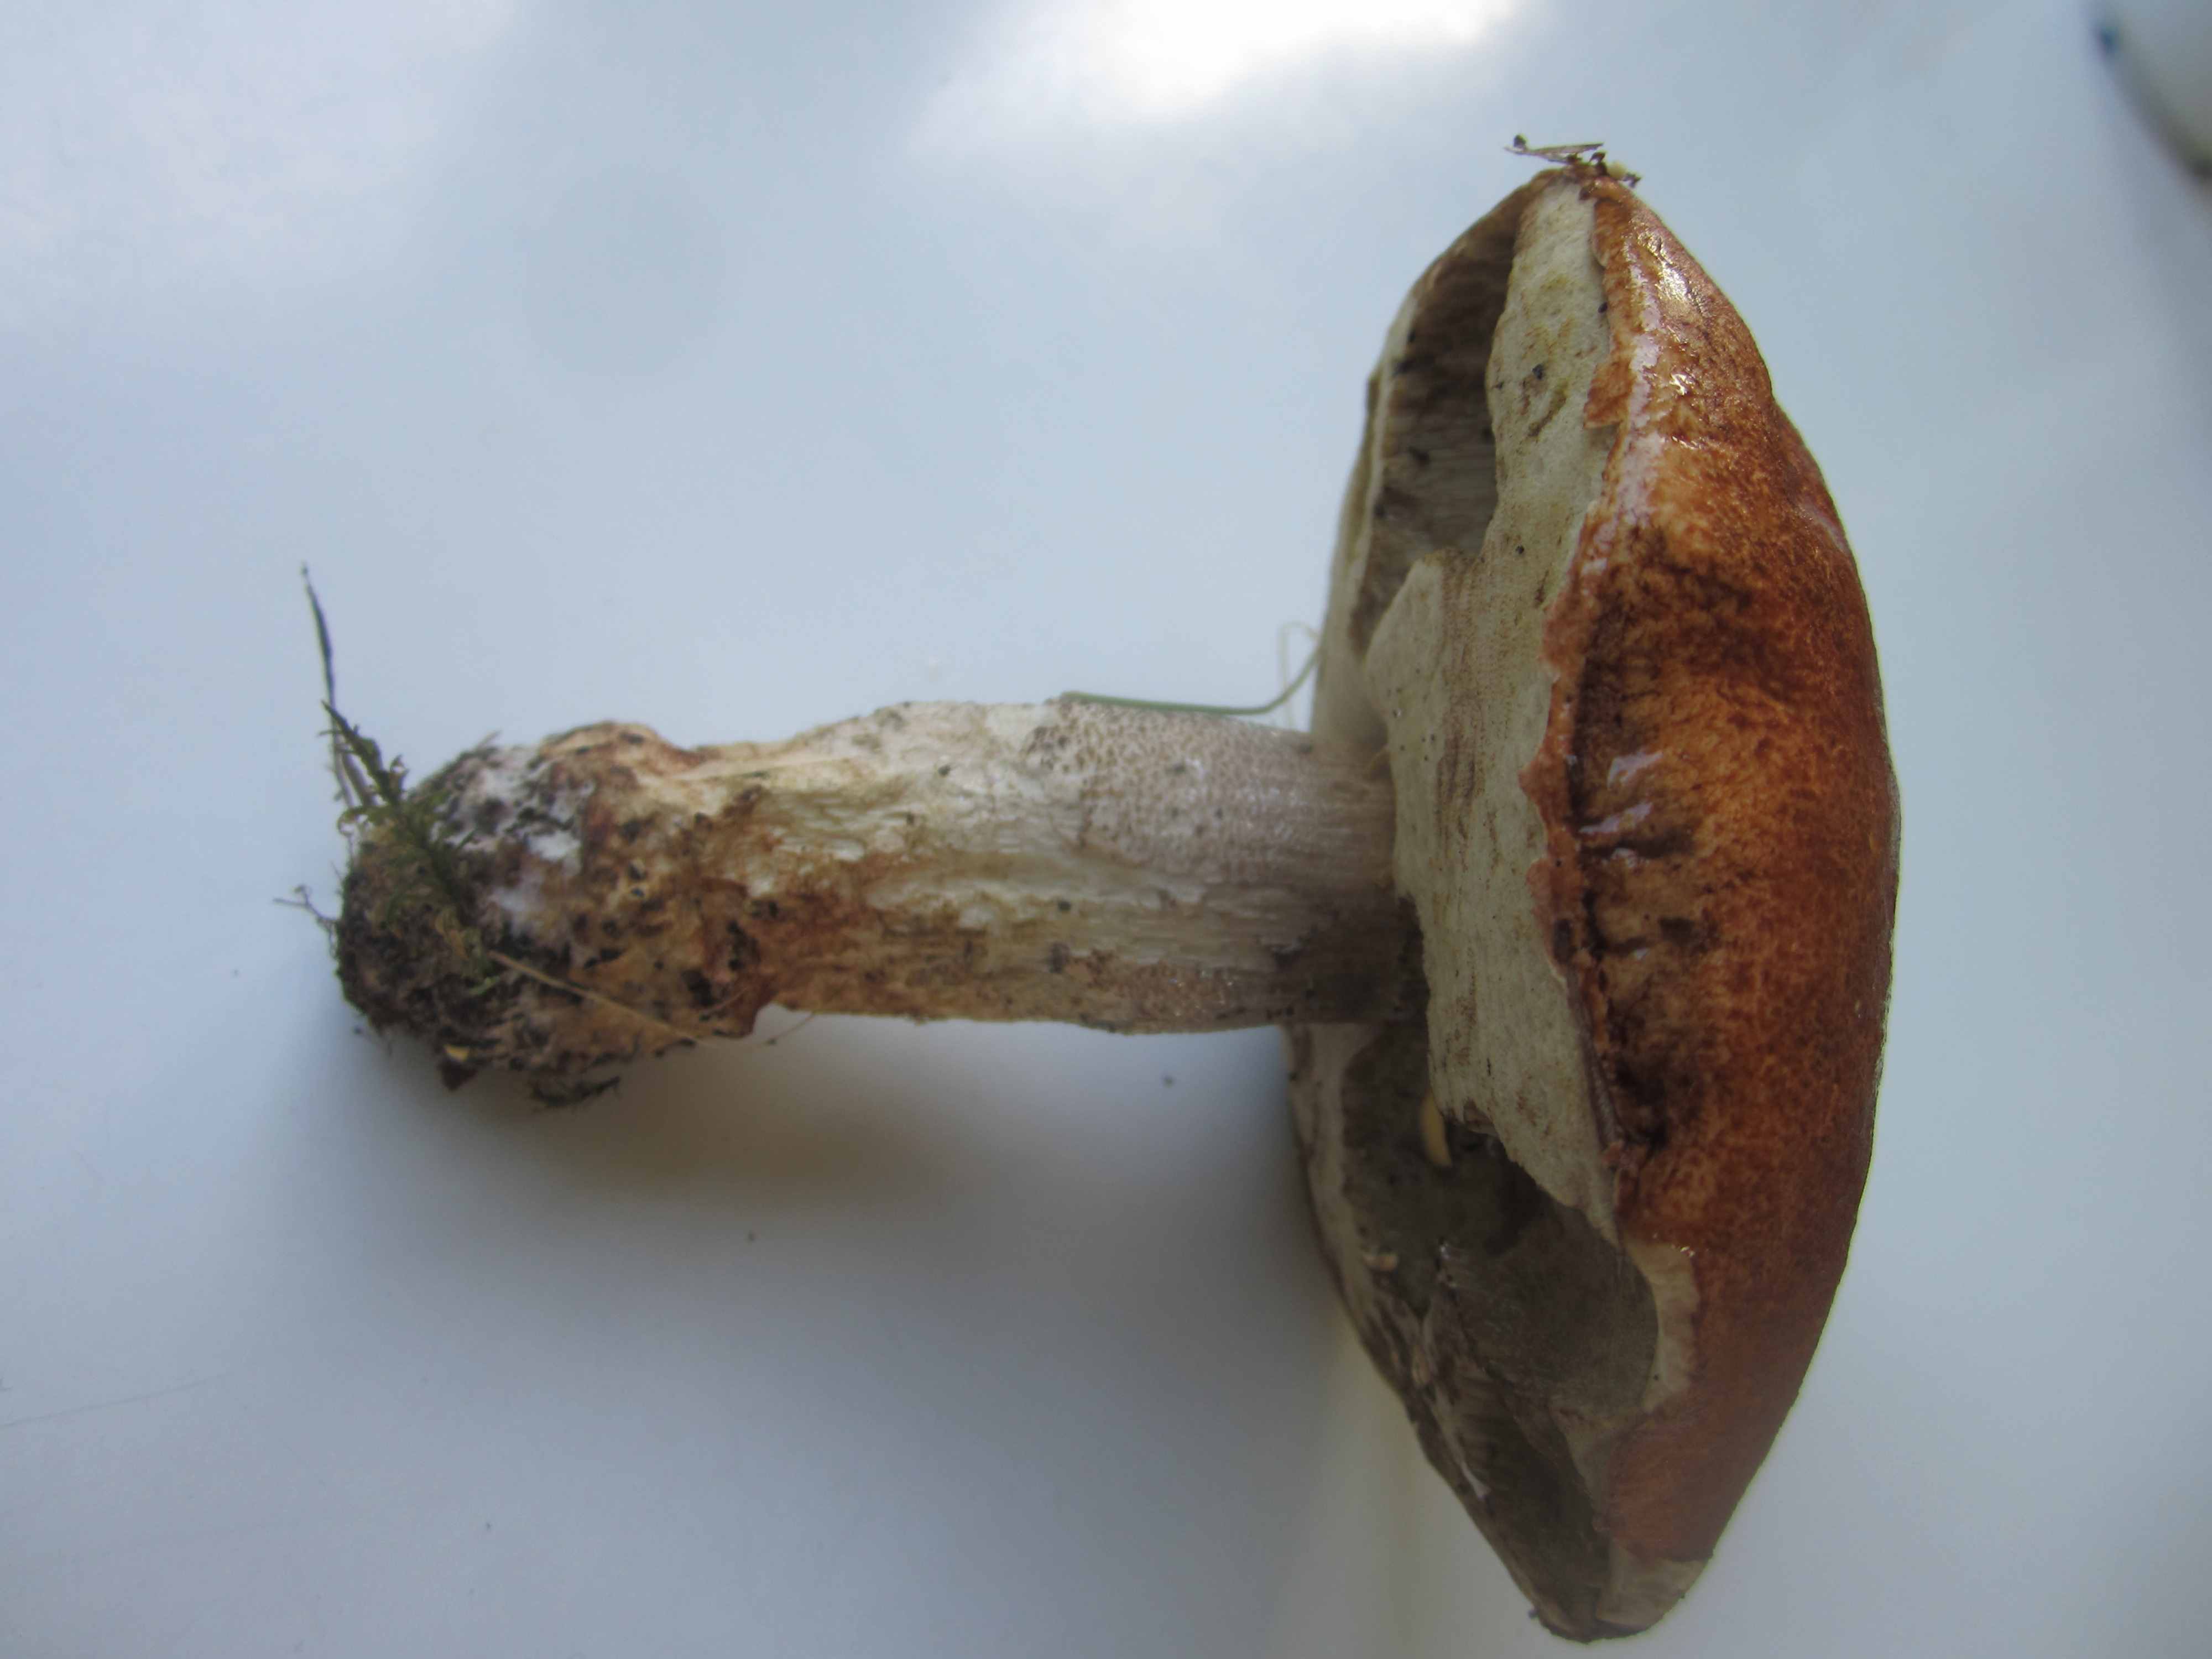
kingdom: Fungi
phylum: Basidiomycota
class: Agaricomycetes
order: Boletales
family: Boletaceae
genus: Leccinum
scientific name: Leccinum aurantiacum
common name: rustrød skælrørhat
